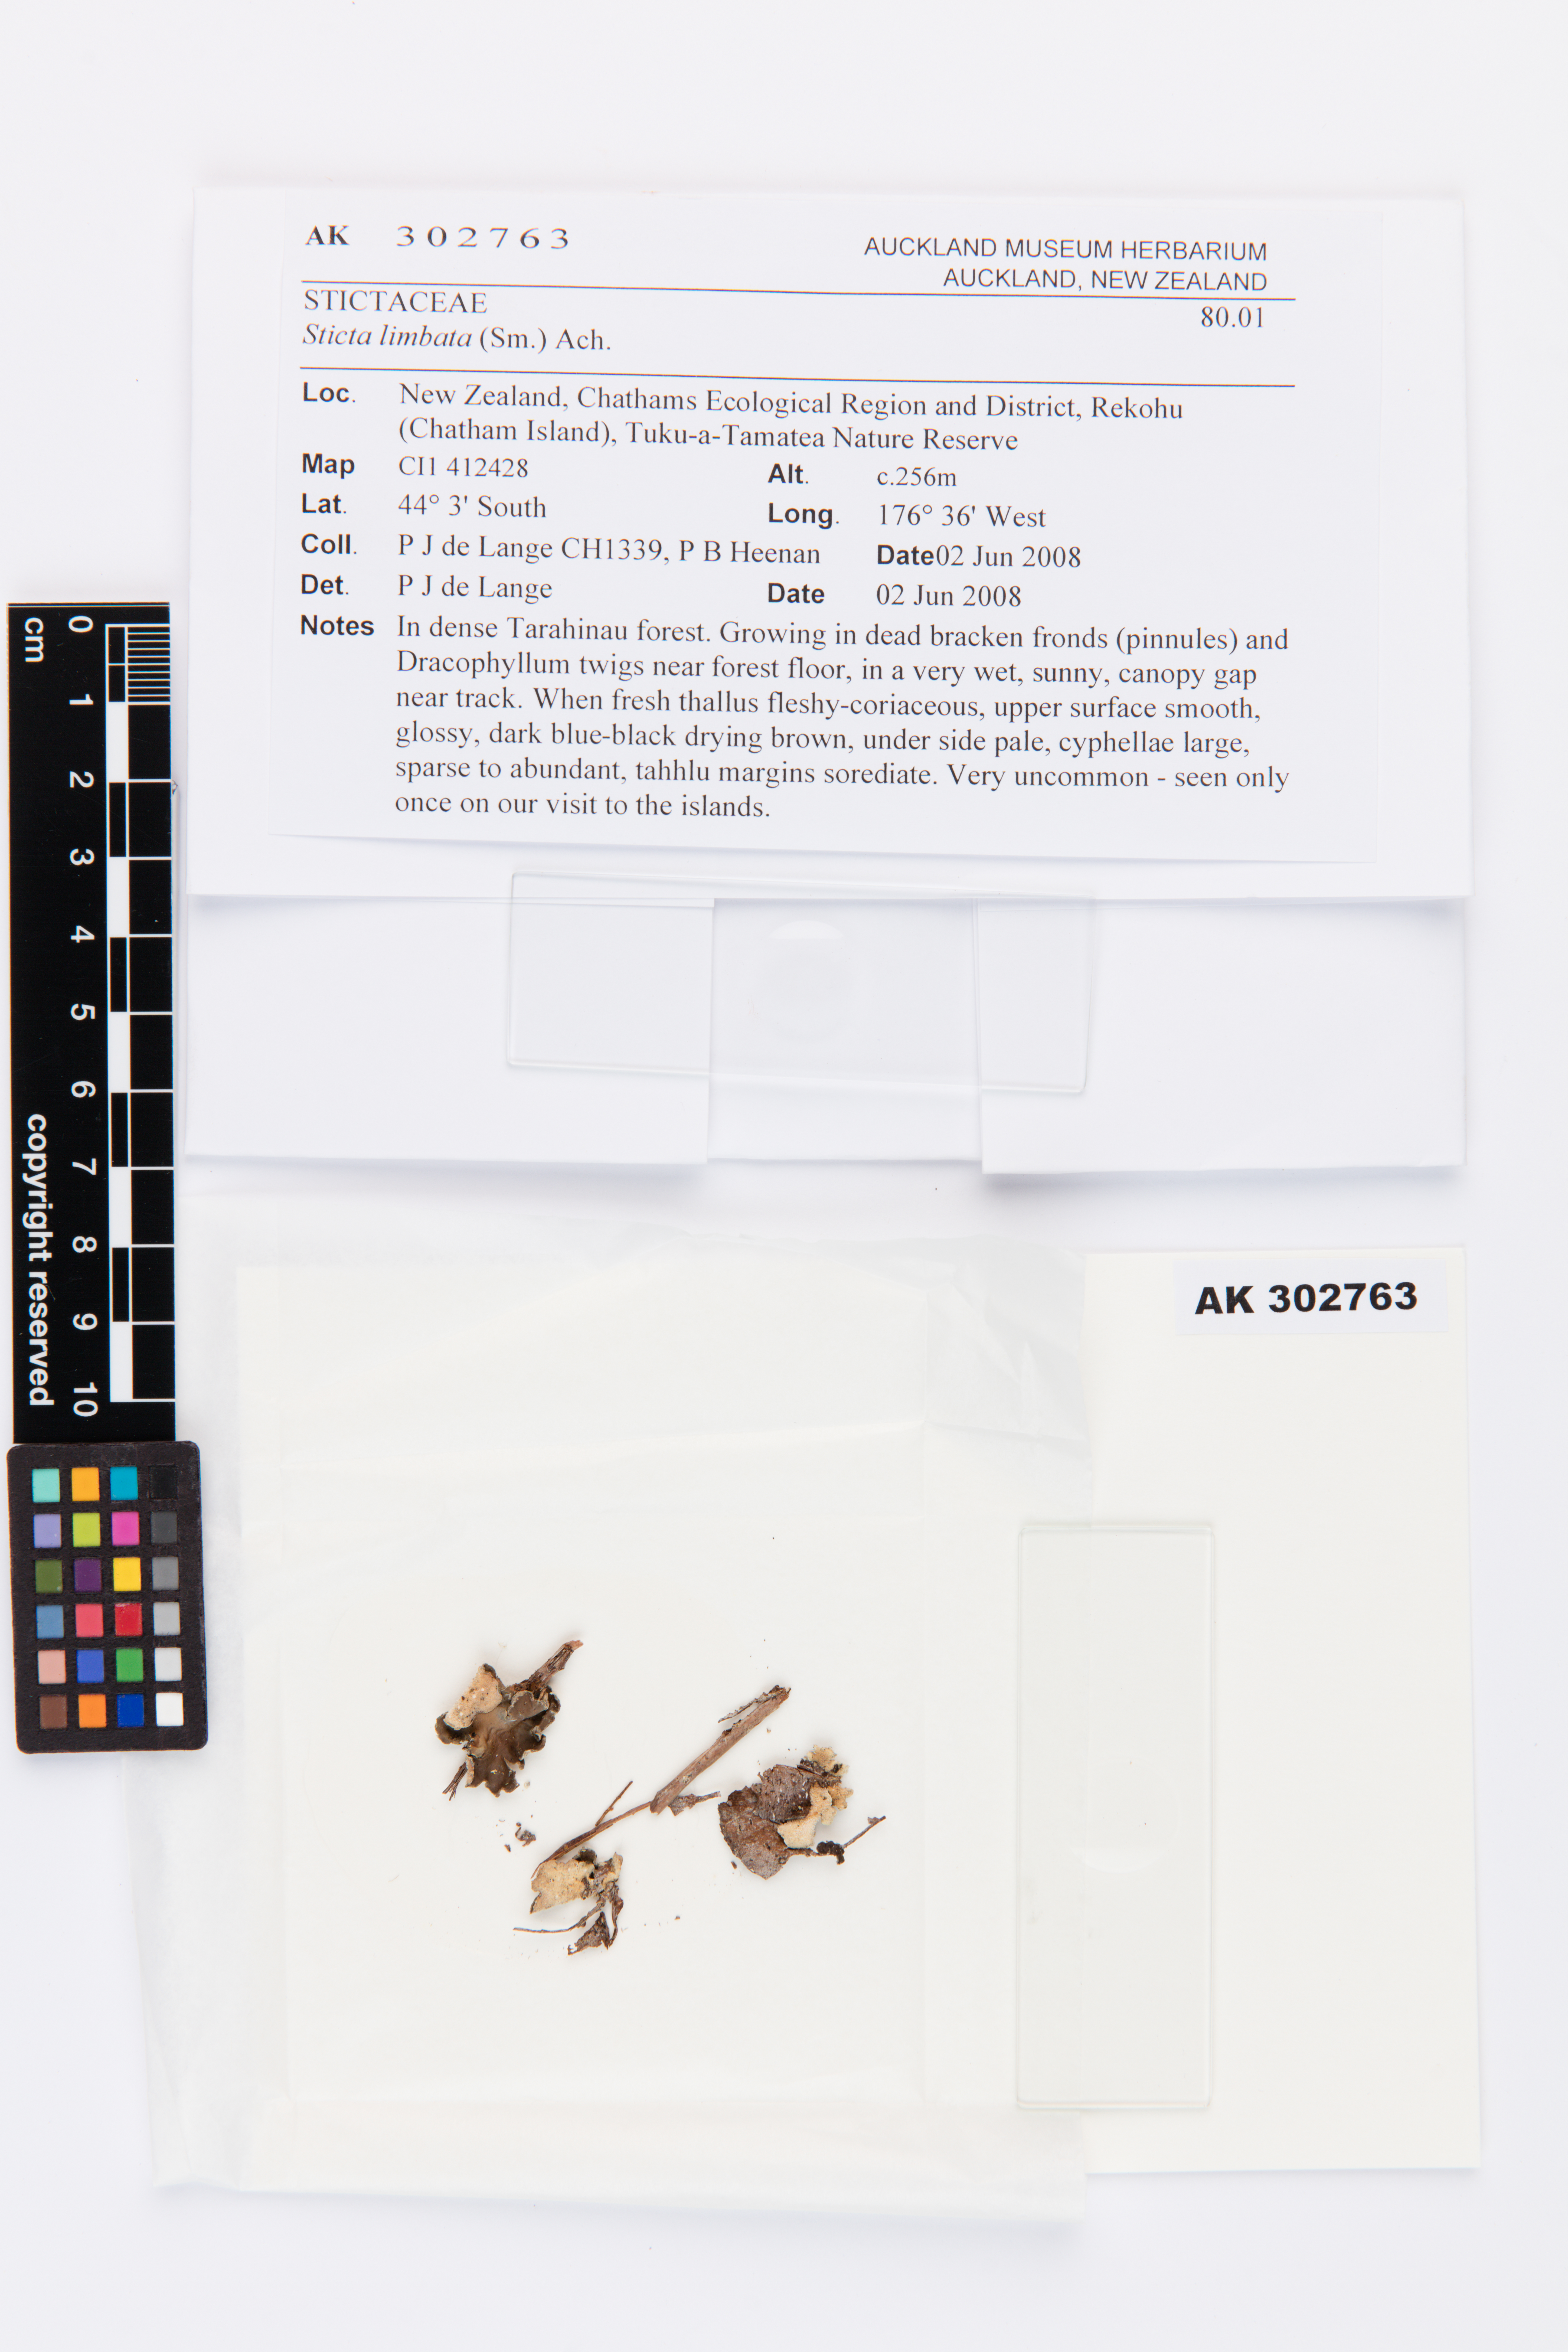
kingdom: Fungi
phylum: Ascomycota
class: Lecanoromycetes
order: Peltigerales
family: Lobariaceae
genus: Sticta
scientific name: Sticta limbata
